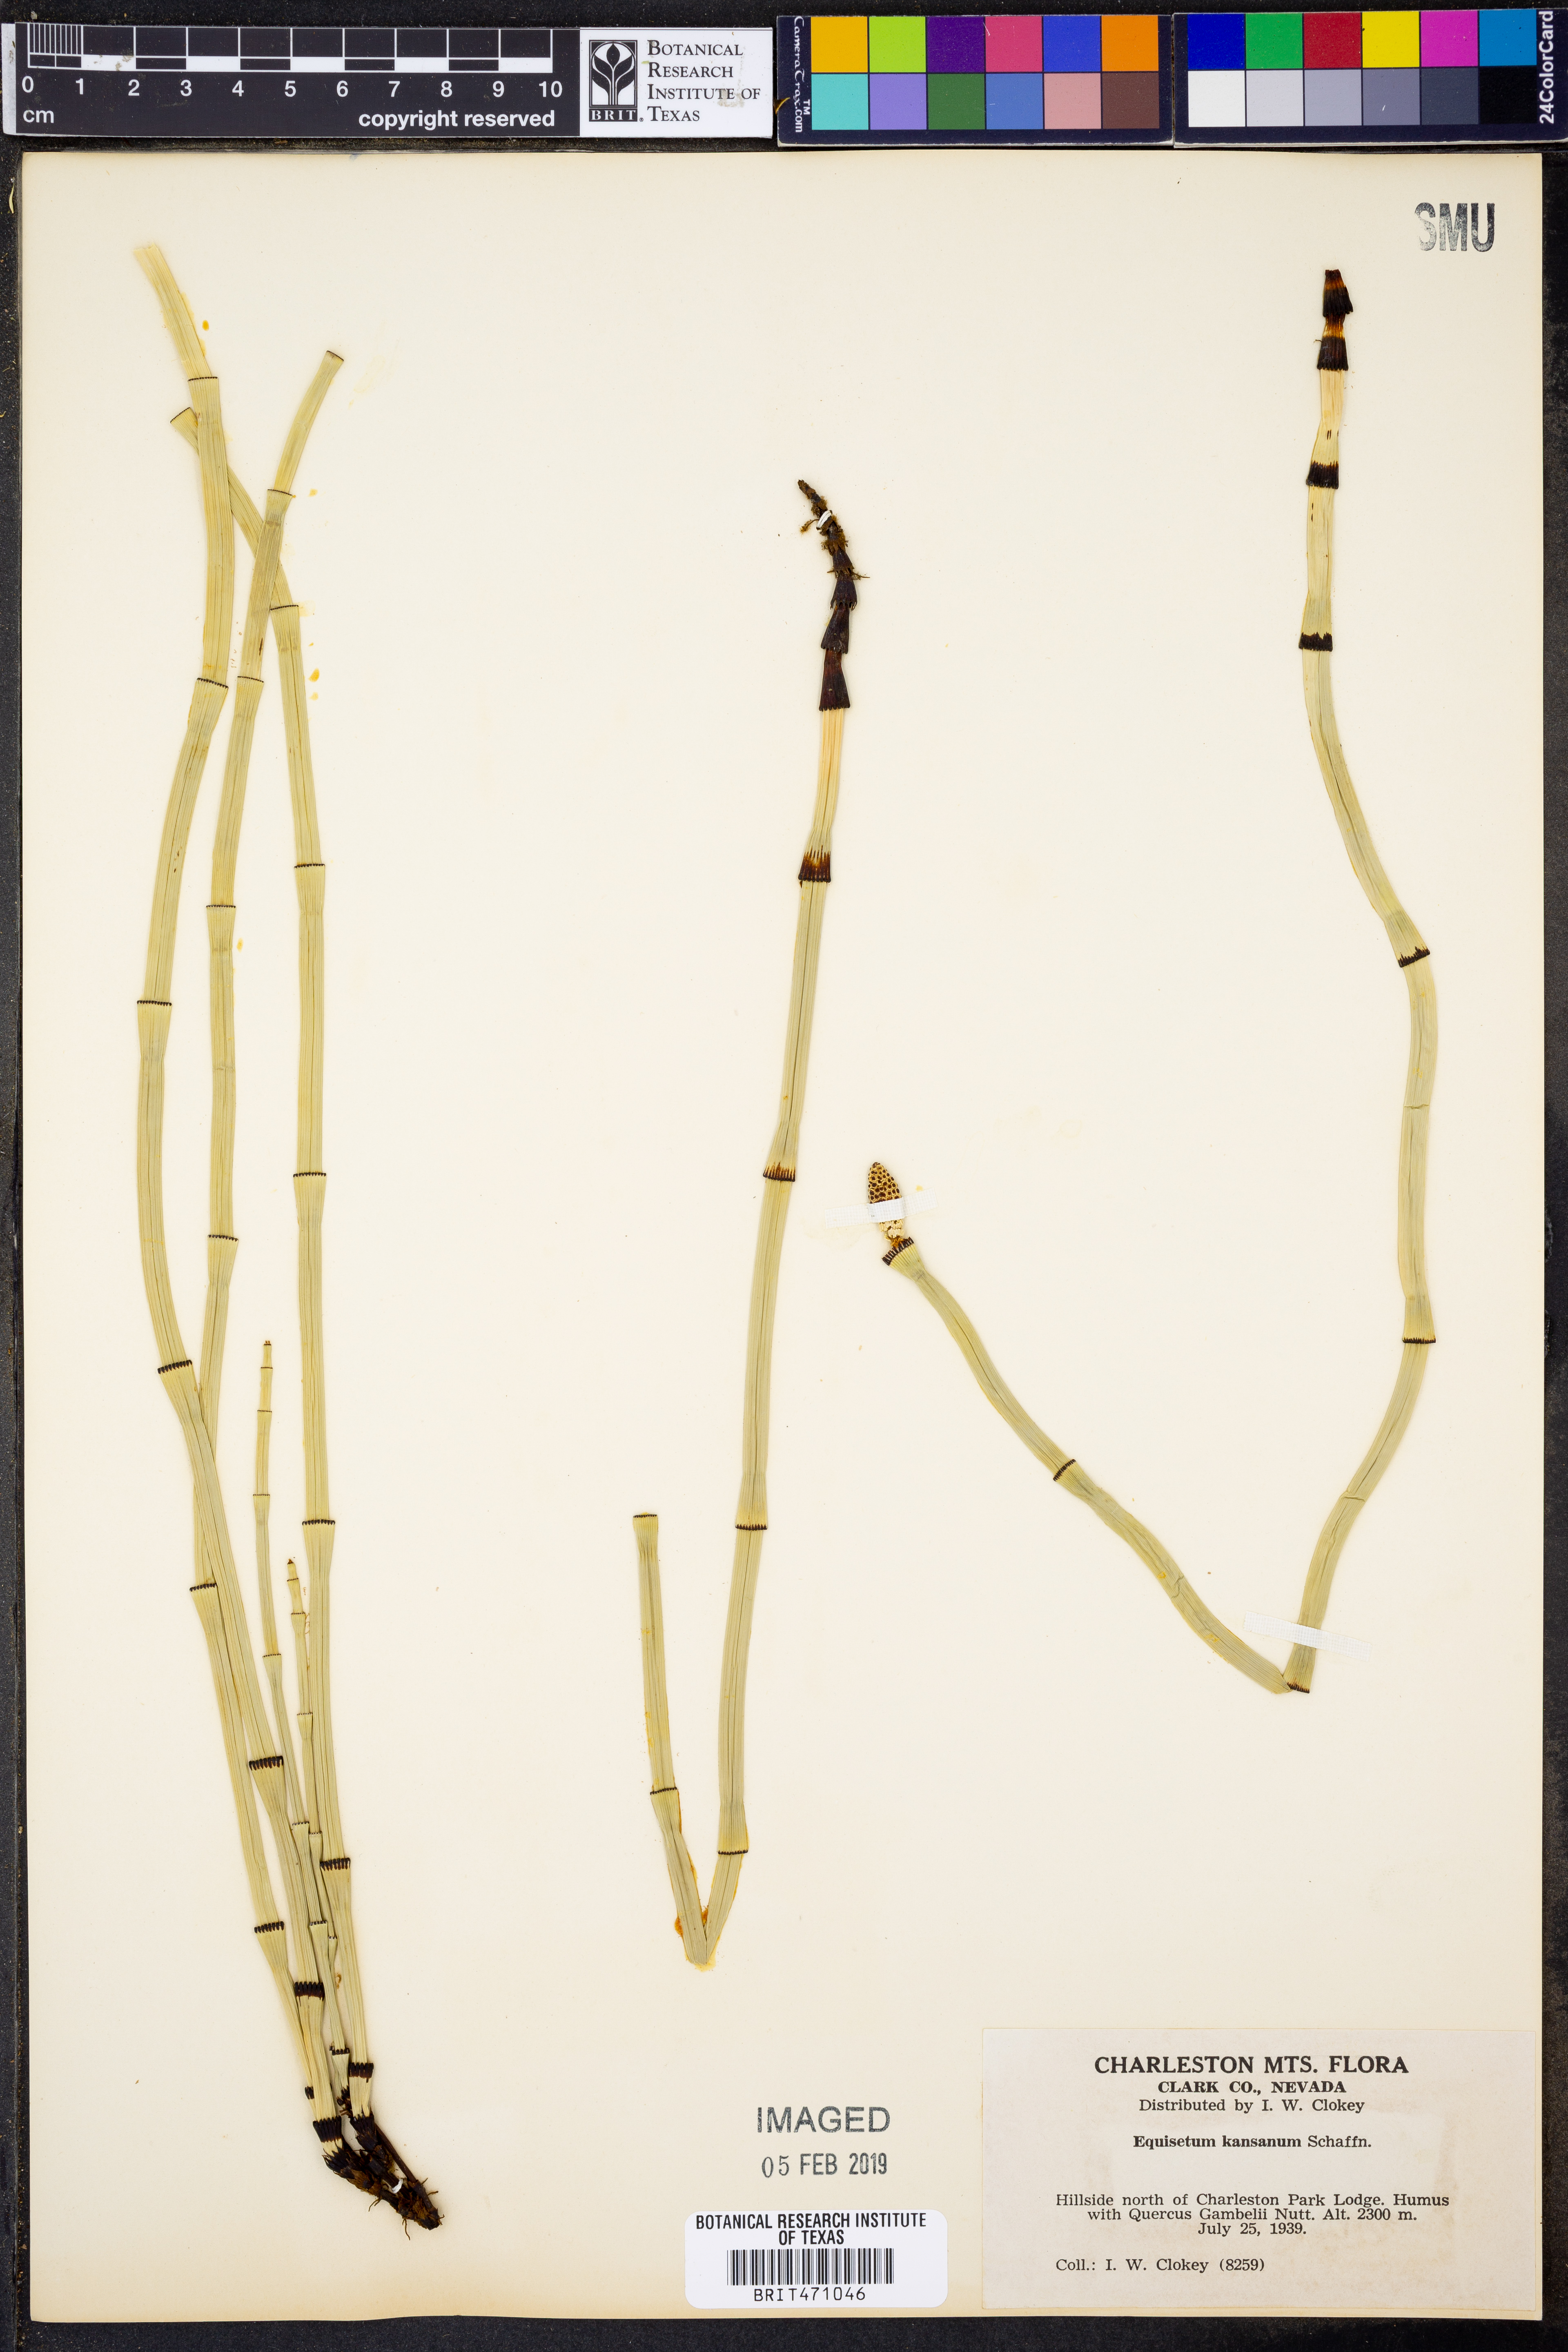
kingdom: Plantae
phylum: Tracheophyta
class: Polypodiopsida
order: Equisetales
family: Equisetaceae
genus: Equisetum
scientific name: Equisetum laevigatum
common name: Smooth scouring-rush
